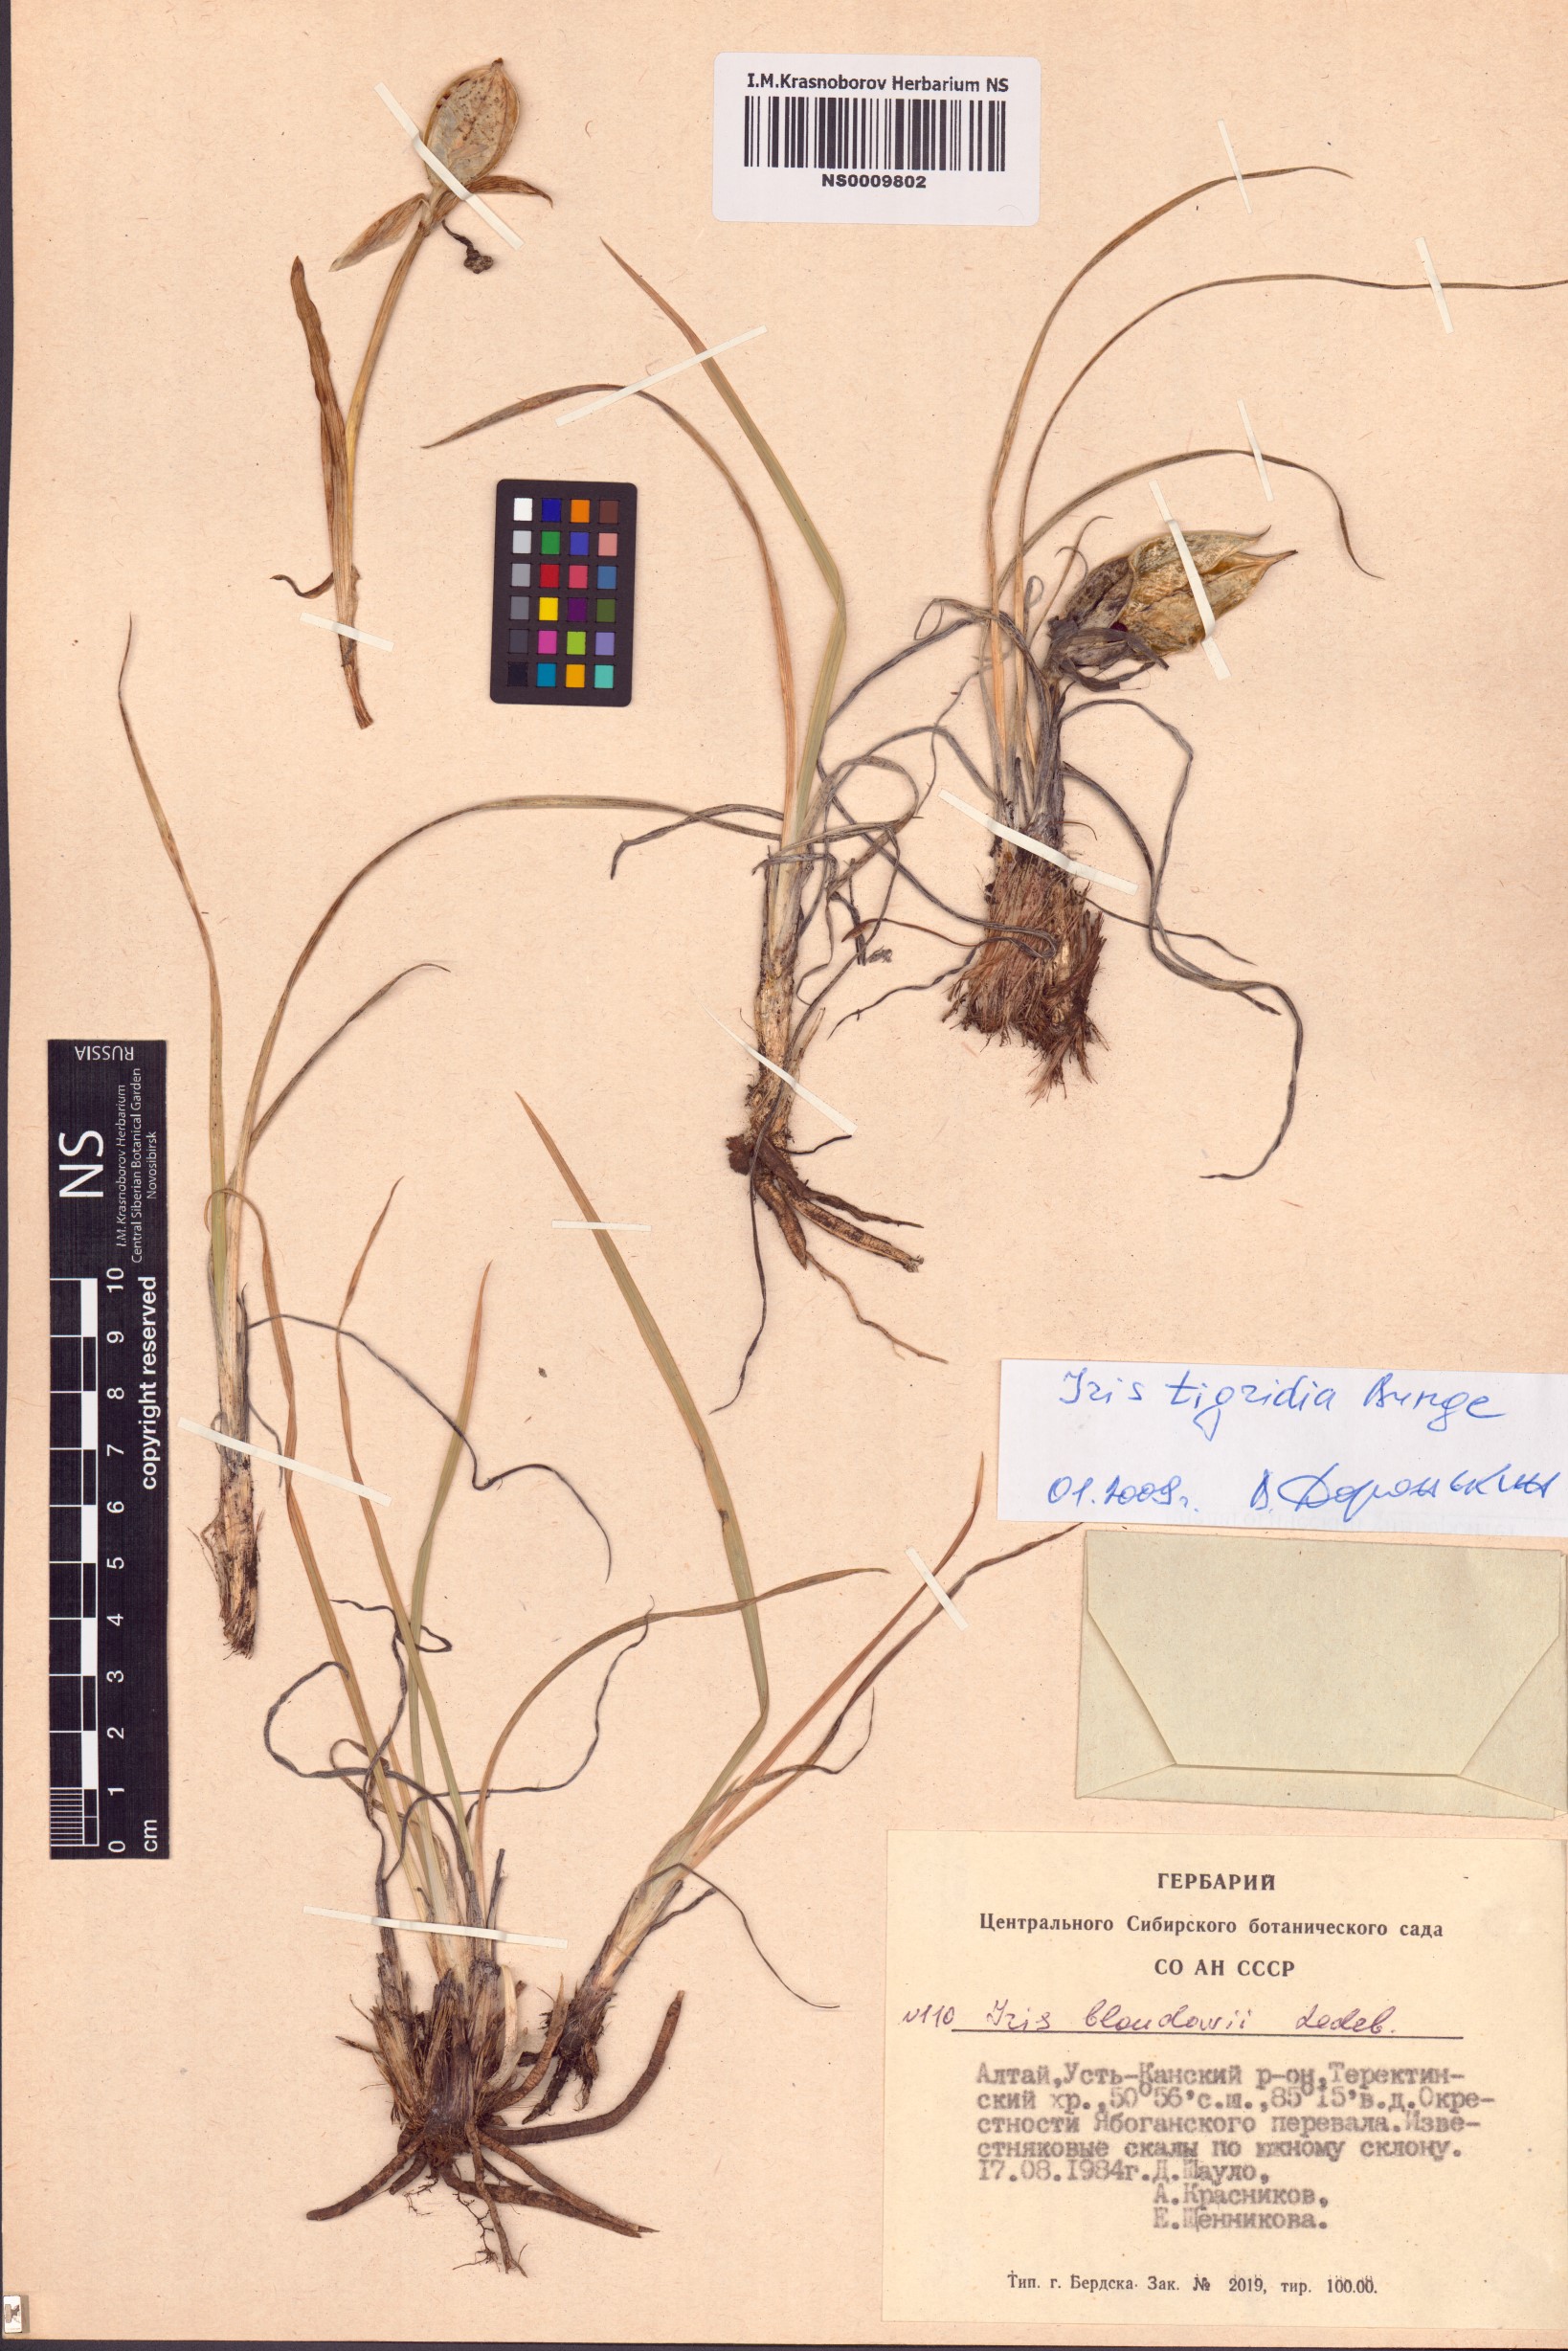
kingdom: Plantae
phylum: Tracheophyta
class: Liliopsida
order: Asparagales
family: Iridaceae
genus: Iris
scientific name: Iris tigridia
